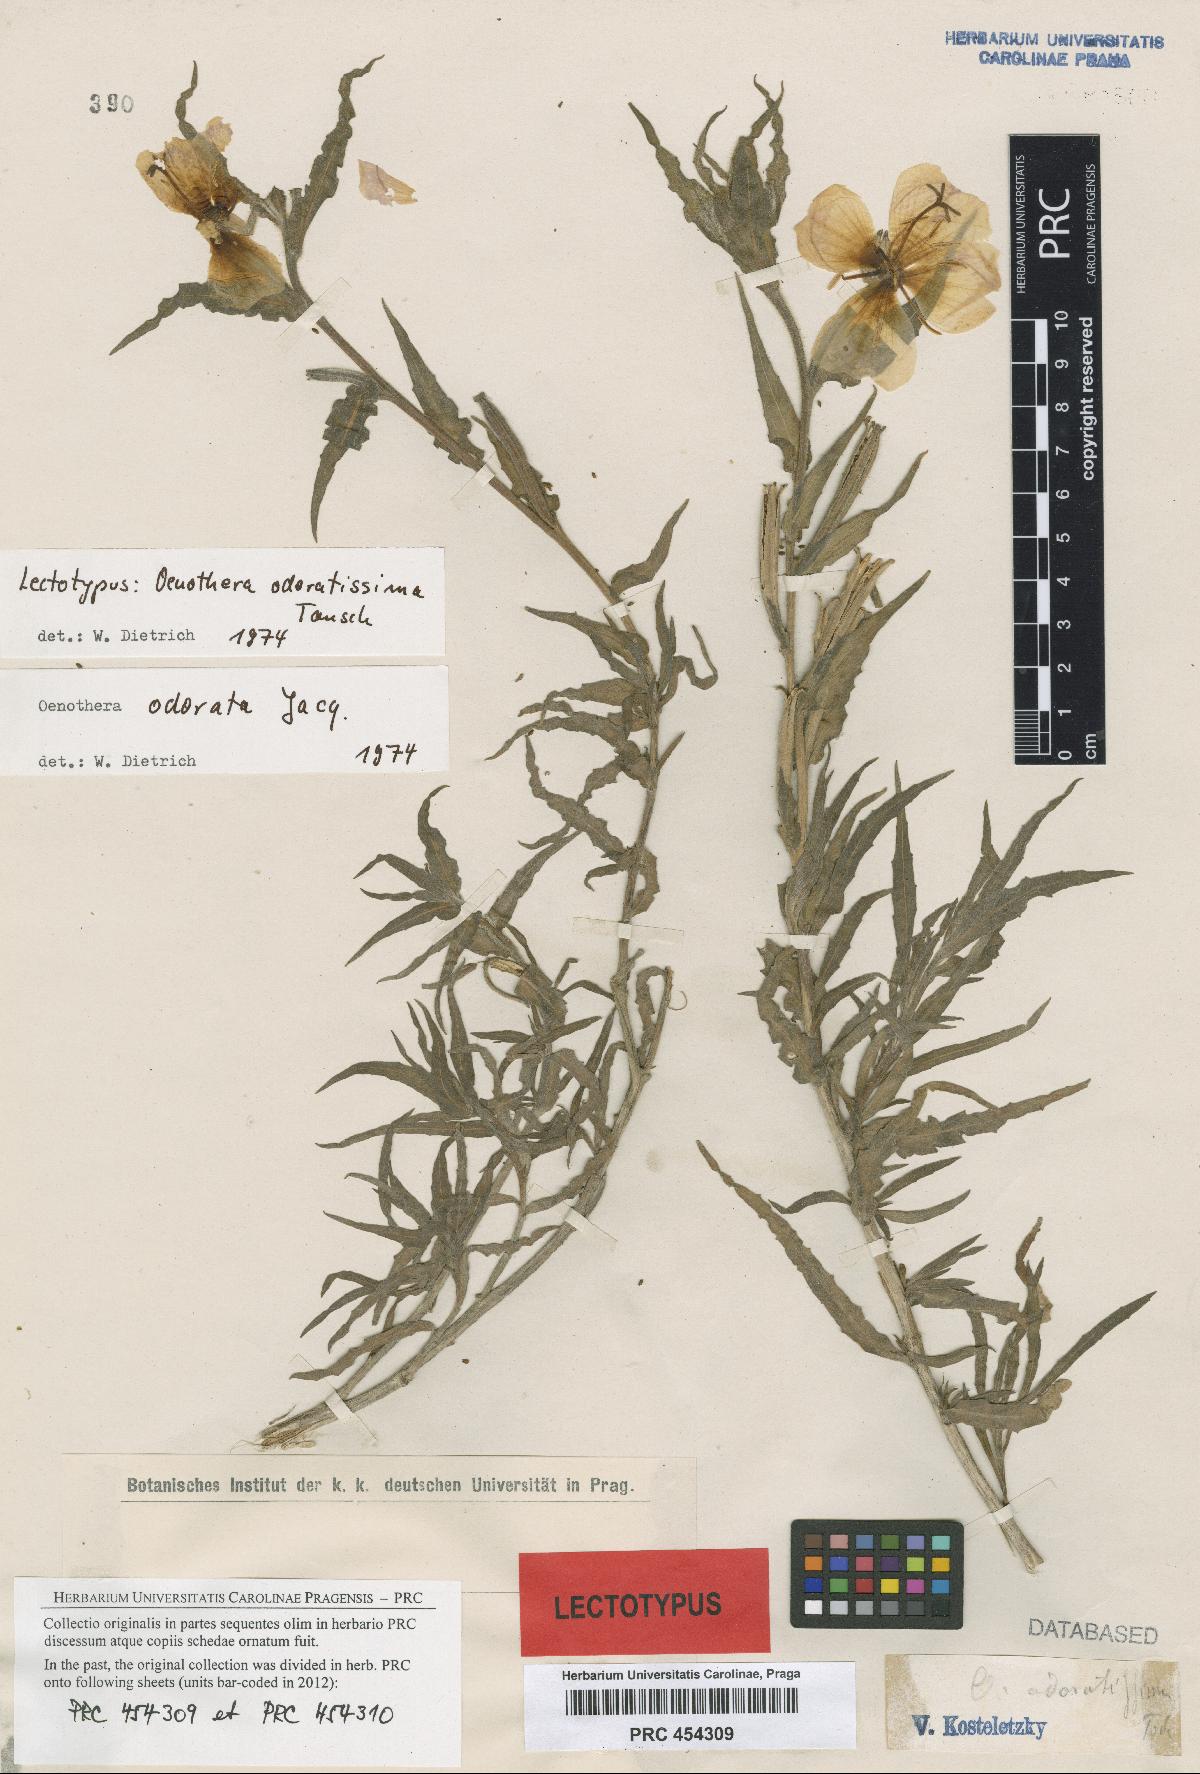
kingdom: Plantae
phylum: Tracheophyta
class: Magnoliopsida
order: Myrtales
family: Onagraceae
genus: Oenothera
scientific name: Oenothera odorata
